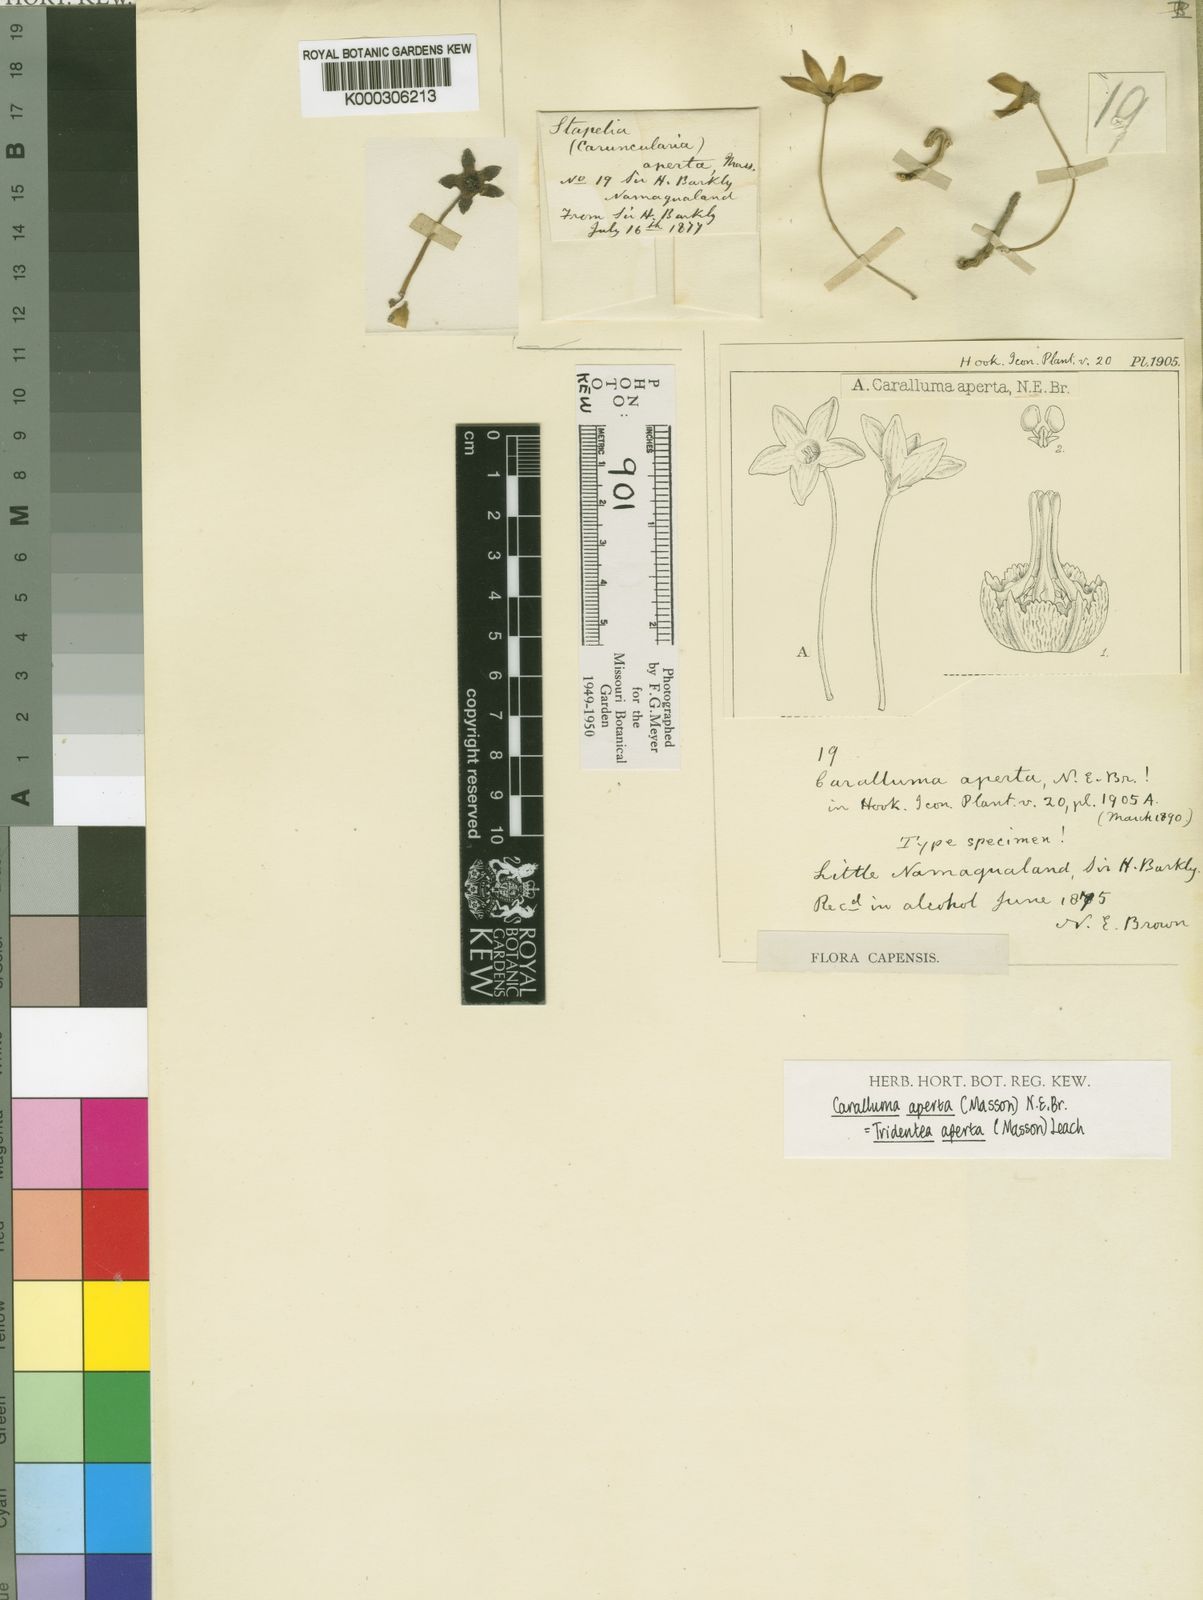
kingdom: Plantae
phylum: Tracheophyta
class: Magnoliopsida
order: Gentianales
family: Apocynaceae
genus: Ceropegia
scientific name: Ceropegia aperta
